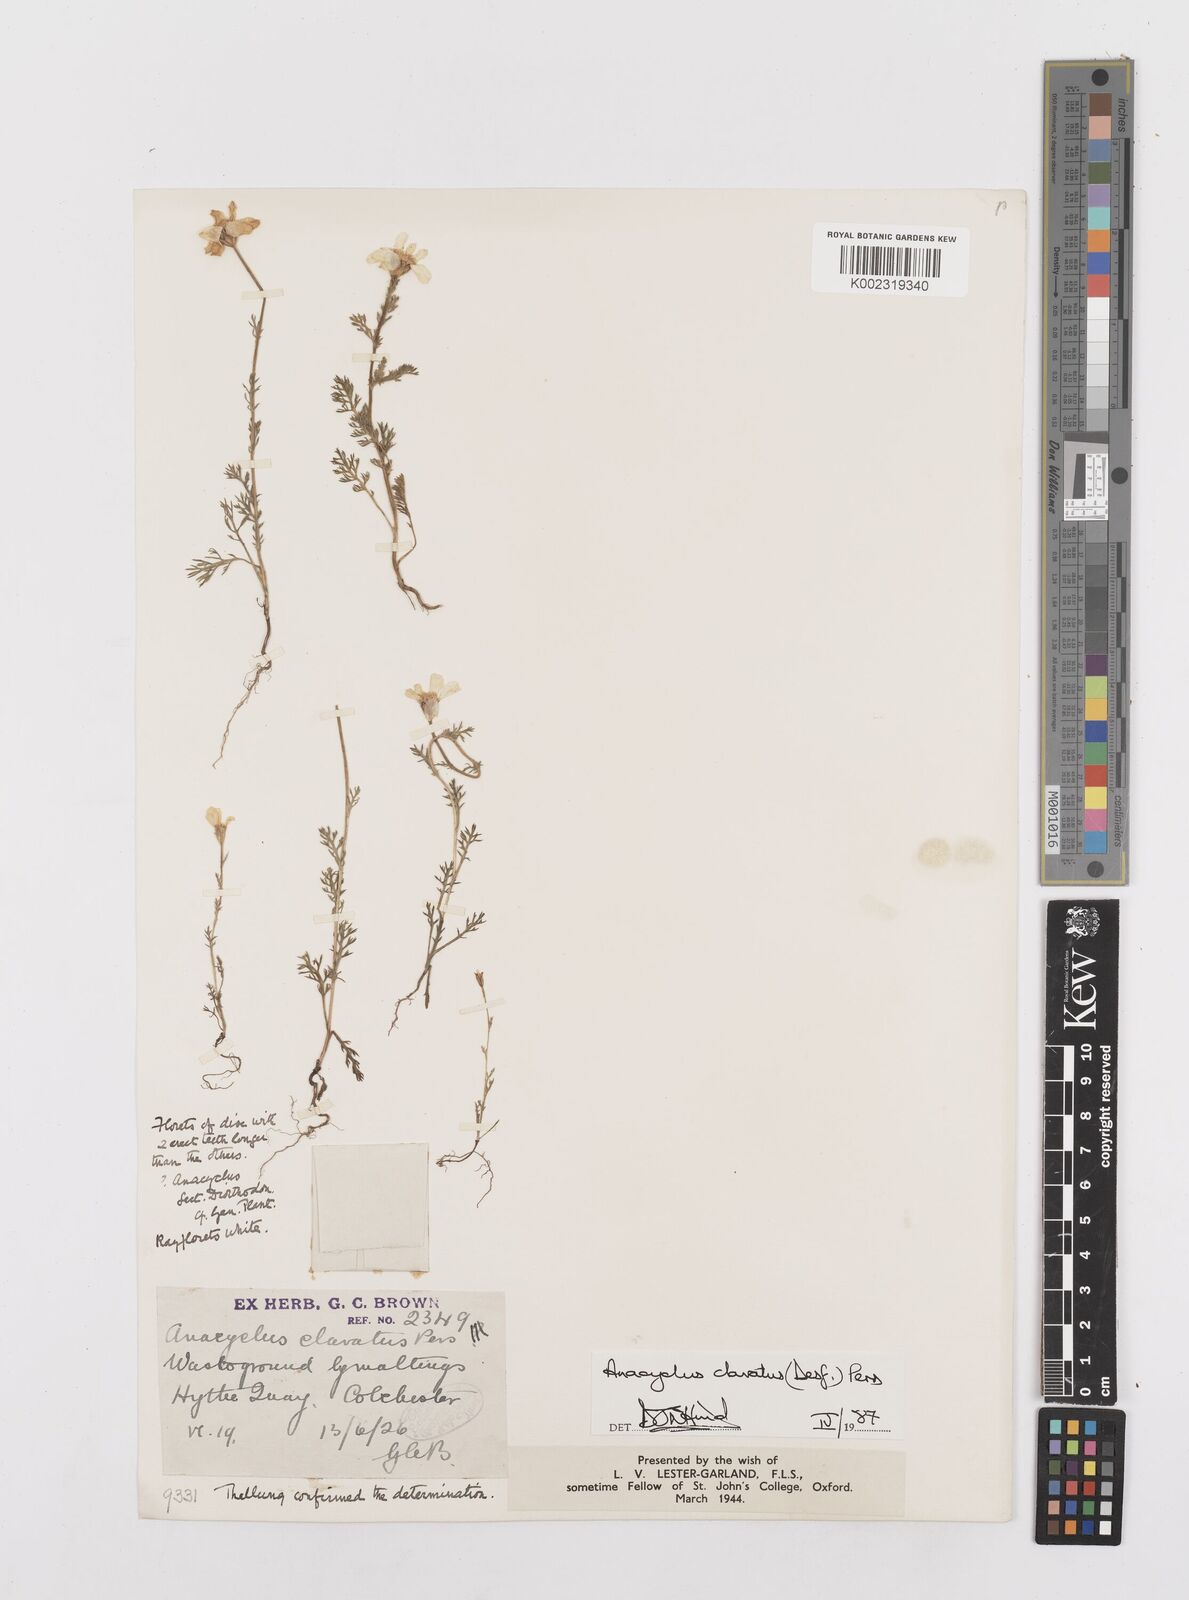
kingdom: Plantae
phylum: Tracheophyta
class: Magnoliopsida
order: Asterales
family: Asteraceae
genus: Anacyclus
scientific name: Anacyclus clavatus
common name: Whitebuttons
